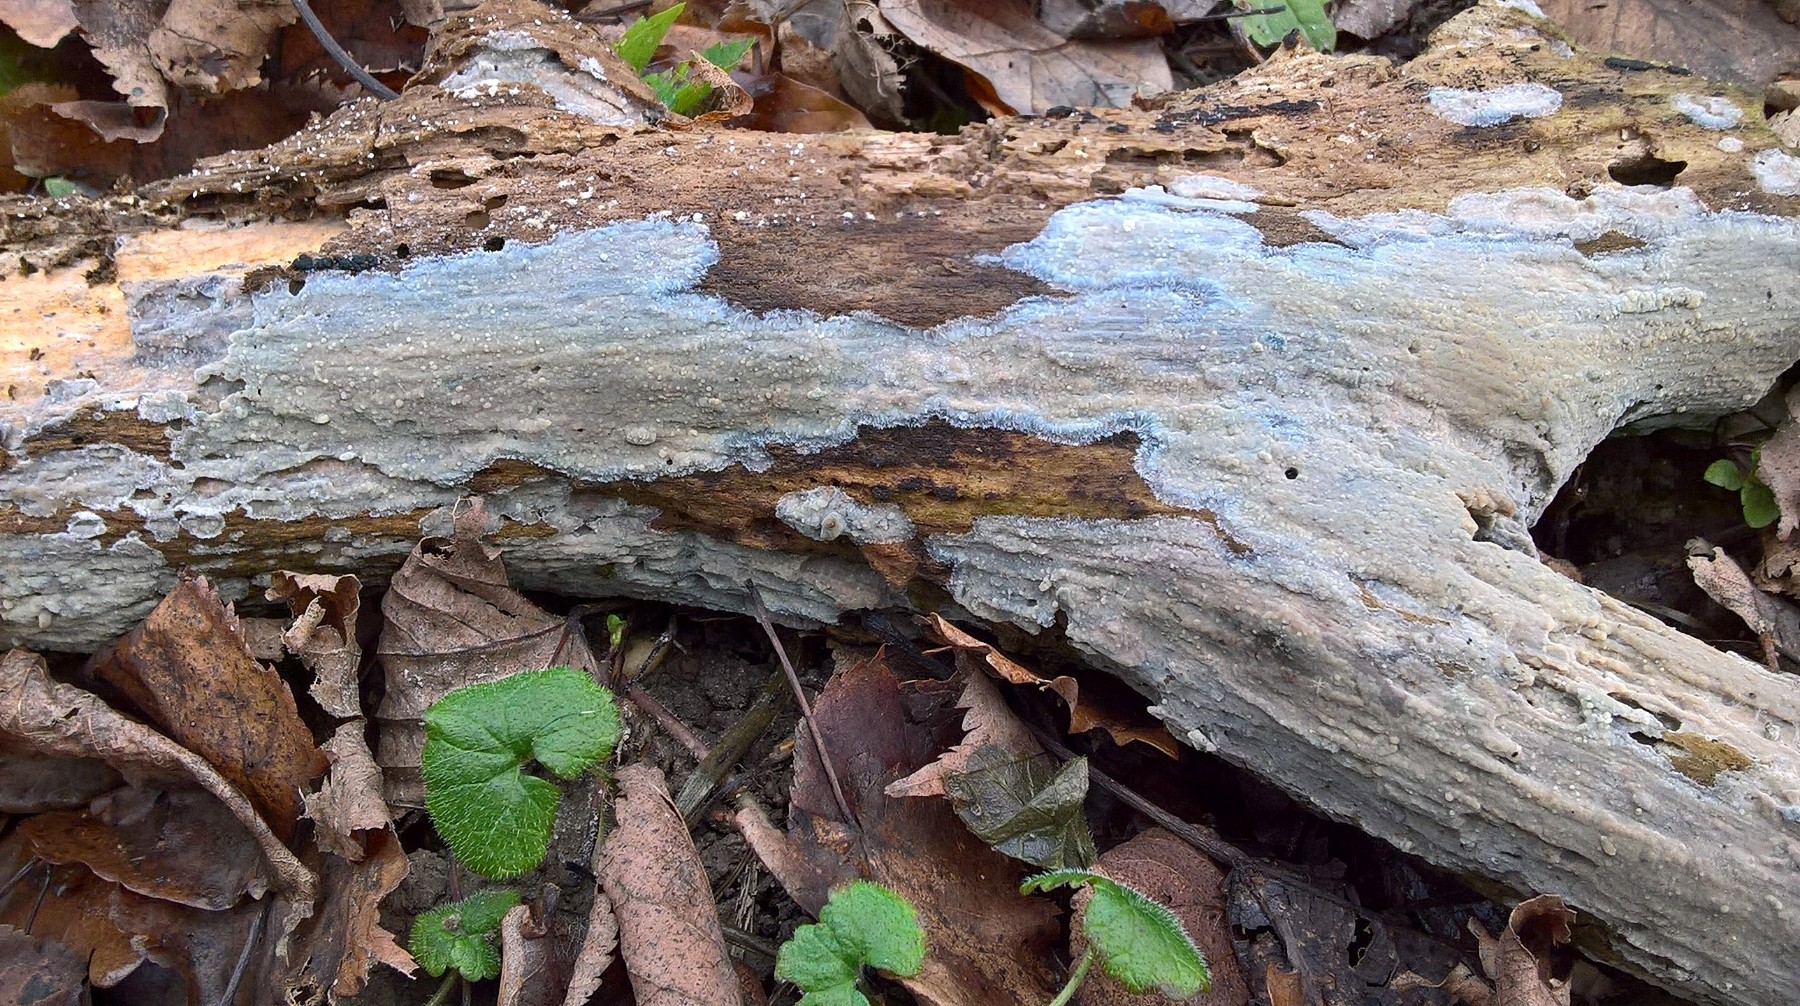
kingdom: Fungi
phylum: Basidiomycota
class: Agaricomycetes
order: Agaricales
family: Radulomycetaceae
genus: Radulomyces
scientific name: Radulomyces confluens
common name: glat naftalinskind
